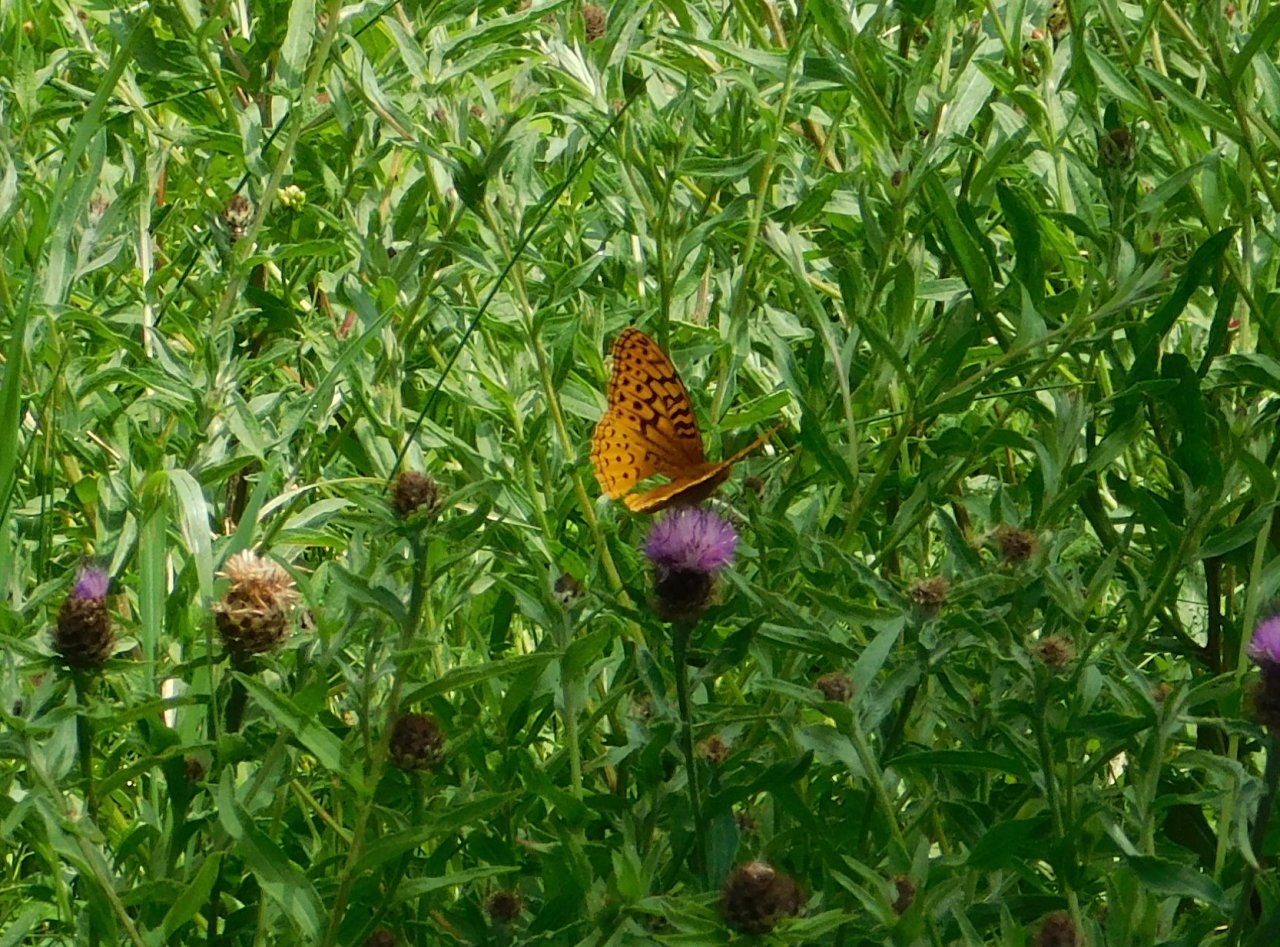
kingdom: Animalia
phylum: Arthropoda
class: Insecta
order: Lepidoptera
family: Nymphalidae
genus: Speyeria
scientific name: Speyeria cybele
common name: Great Spangled Fritillary
